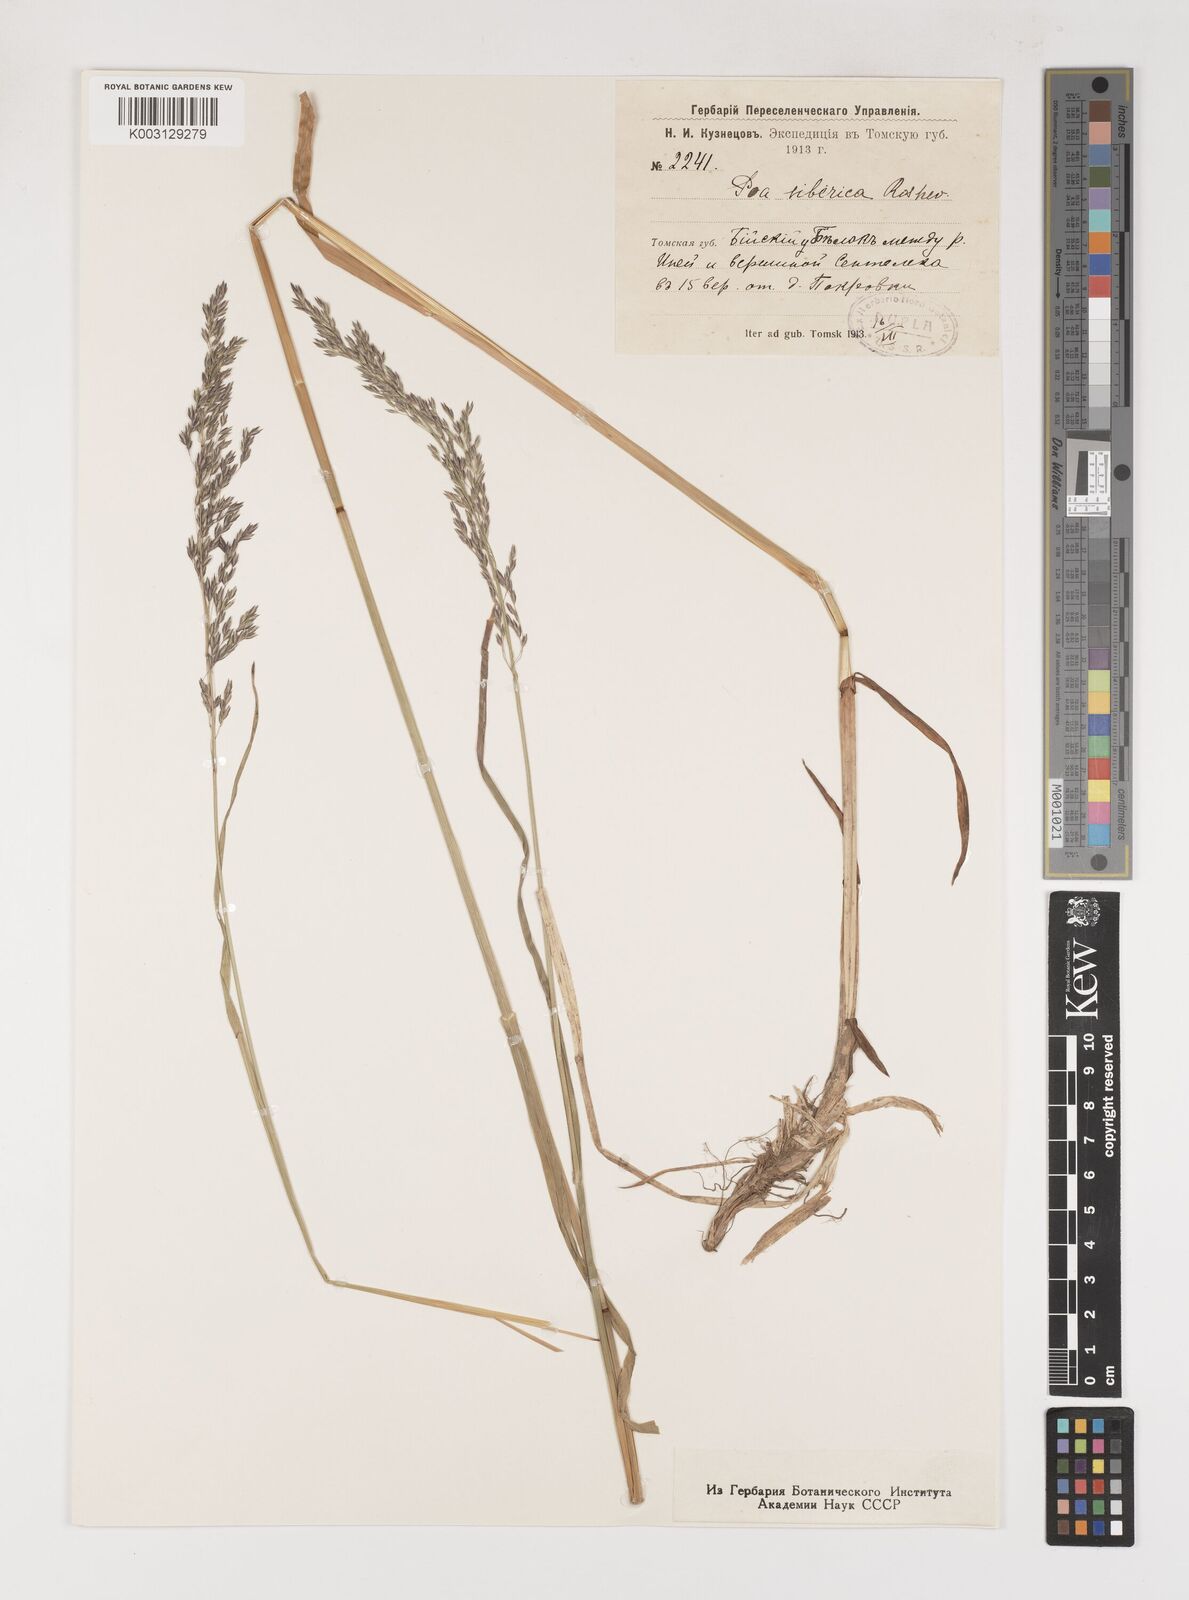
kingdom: Plantae
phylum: Tracheophyta
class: Liliopsida
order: Poales
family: Poaceae
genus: Poa
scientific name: Poa sibirica
